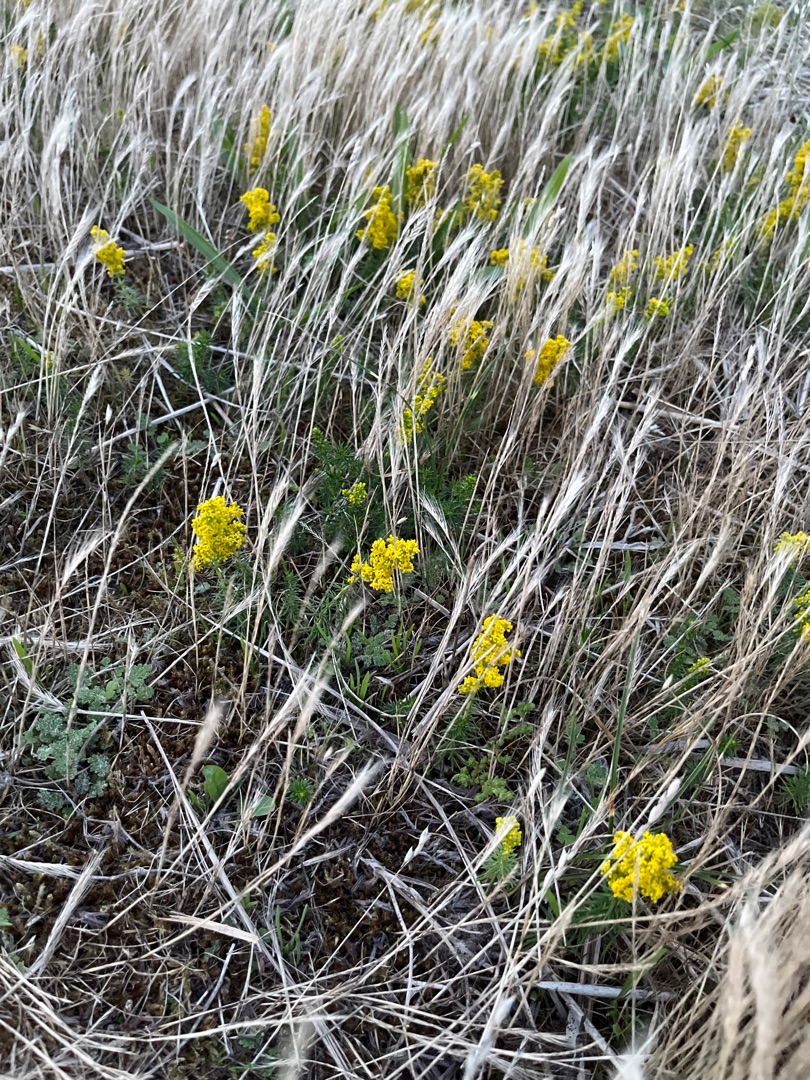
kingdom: Plantae
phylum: Tracheophyta
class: Magnoliopsida
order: Gentianales
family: Rubiaceae
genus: Galium
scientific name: Galium verum
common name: Gul snerre
